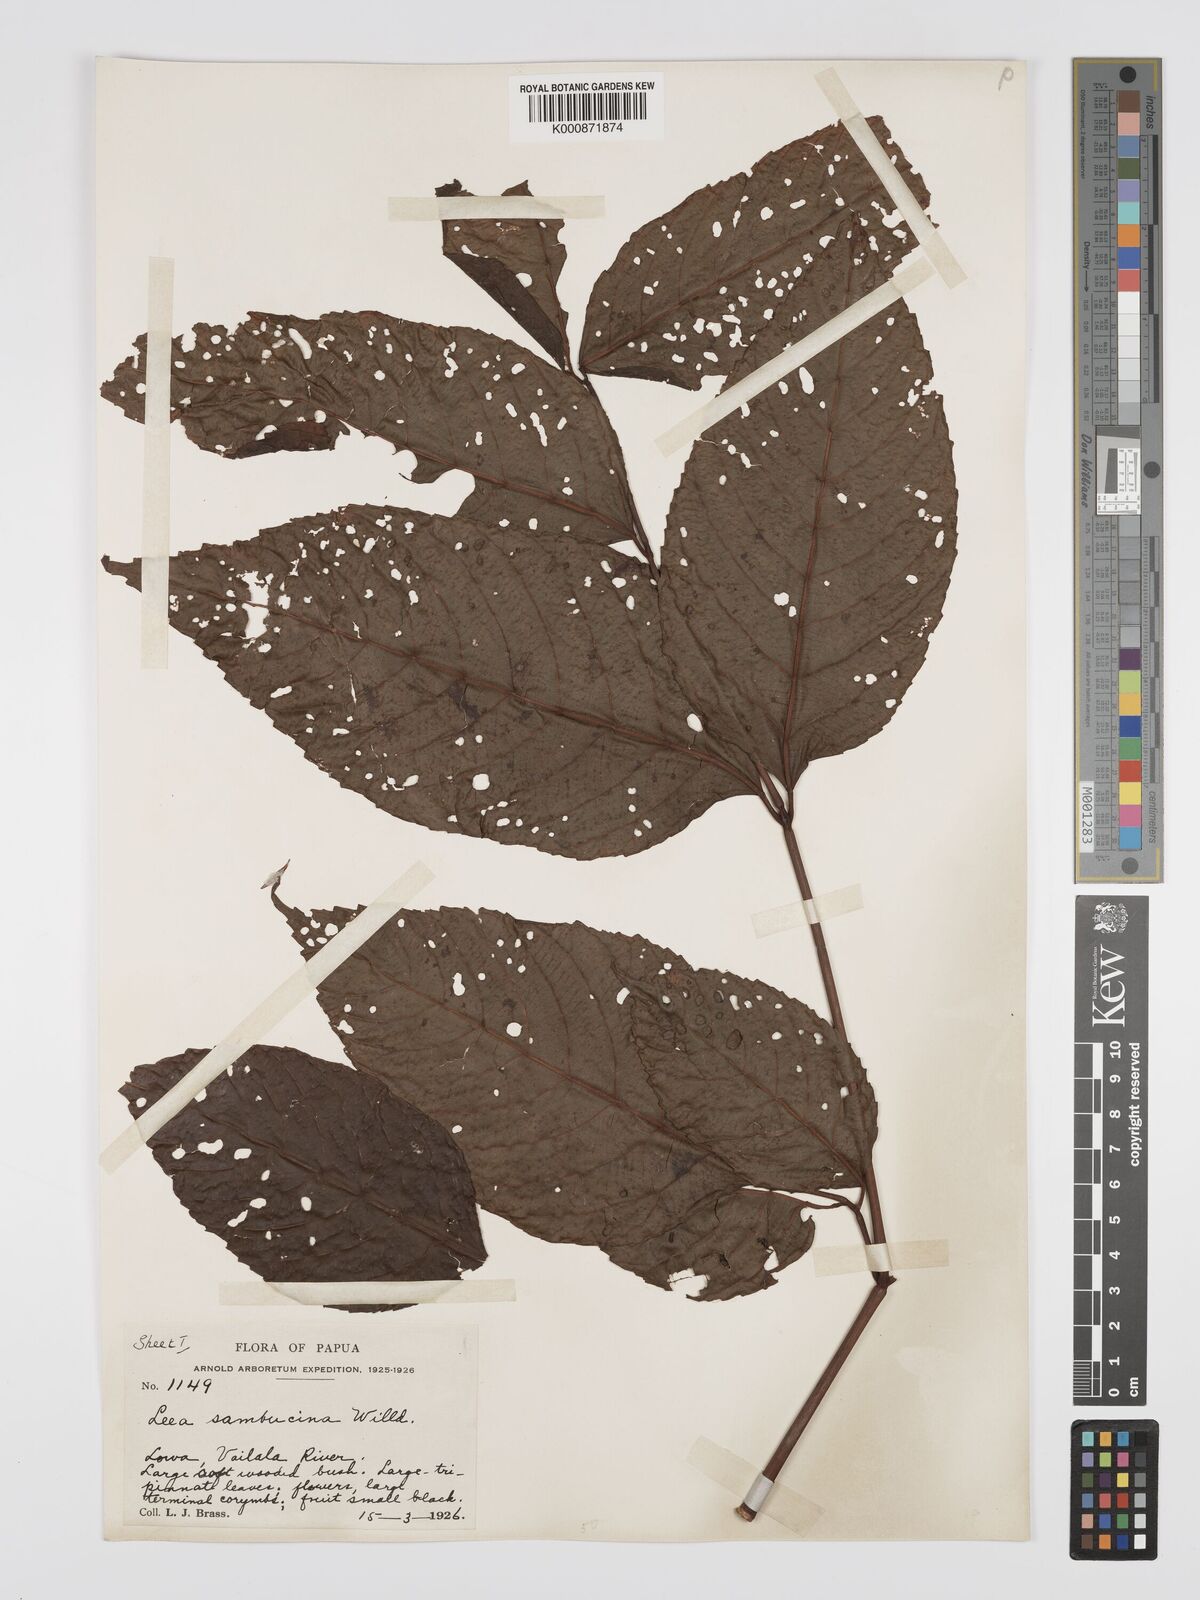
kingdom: Plantae
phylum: Tracheophyta
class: Magnoliopsida
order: Vitales
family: Vitaceae
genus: Leea
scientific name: Leea indica
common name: Bandicoot-berry
